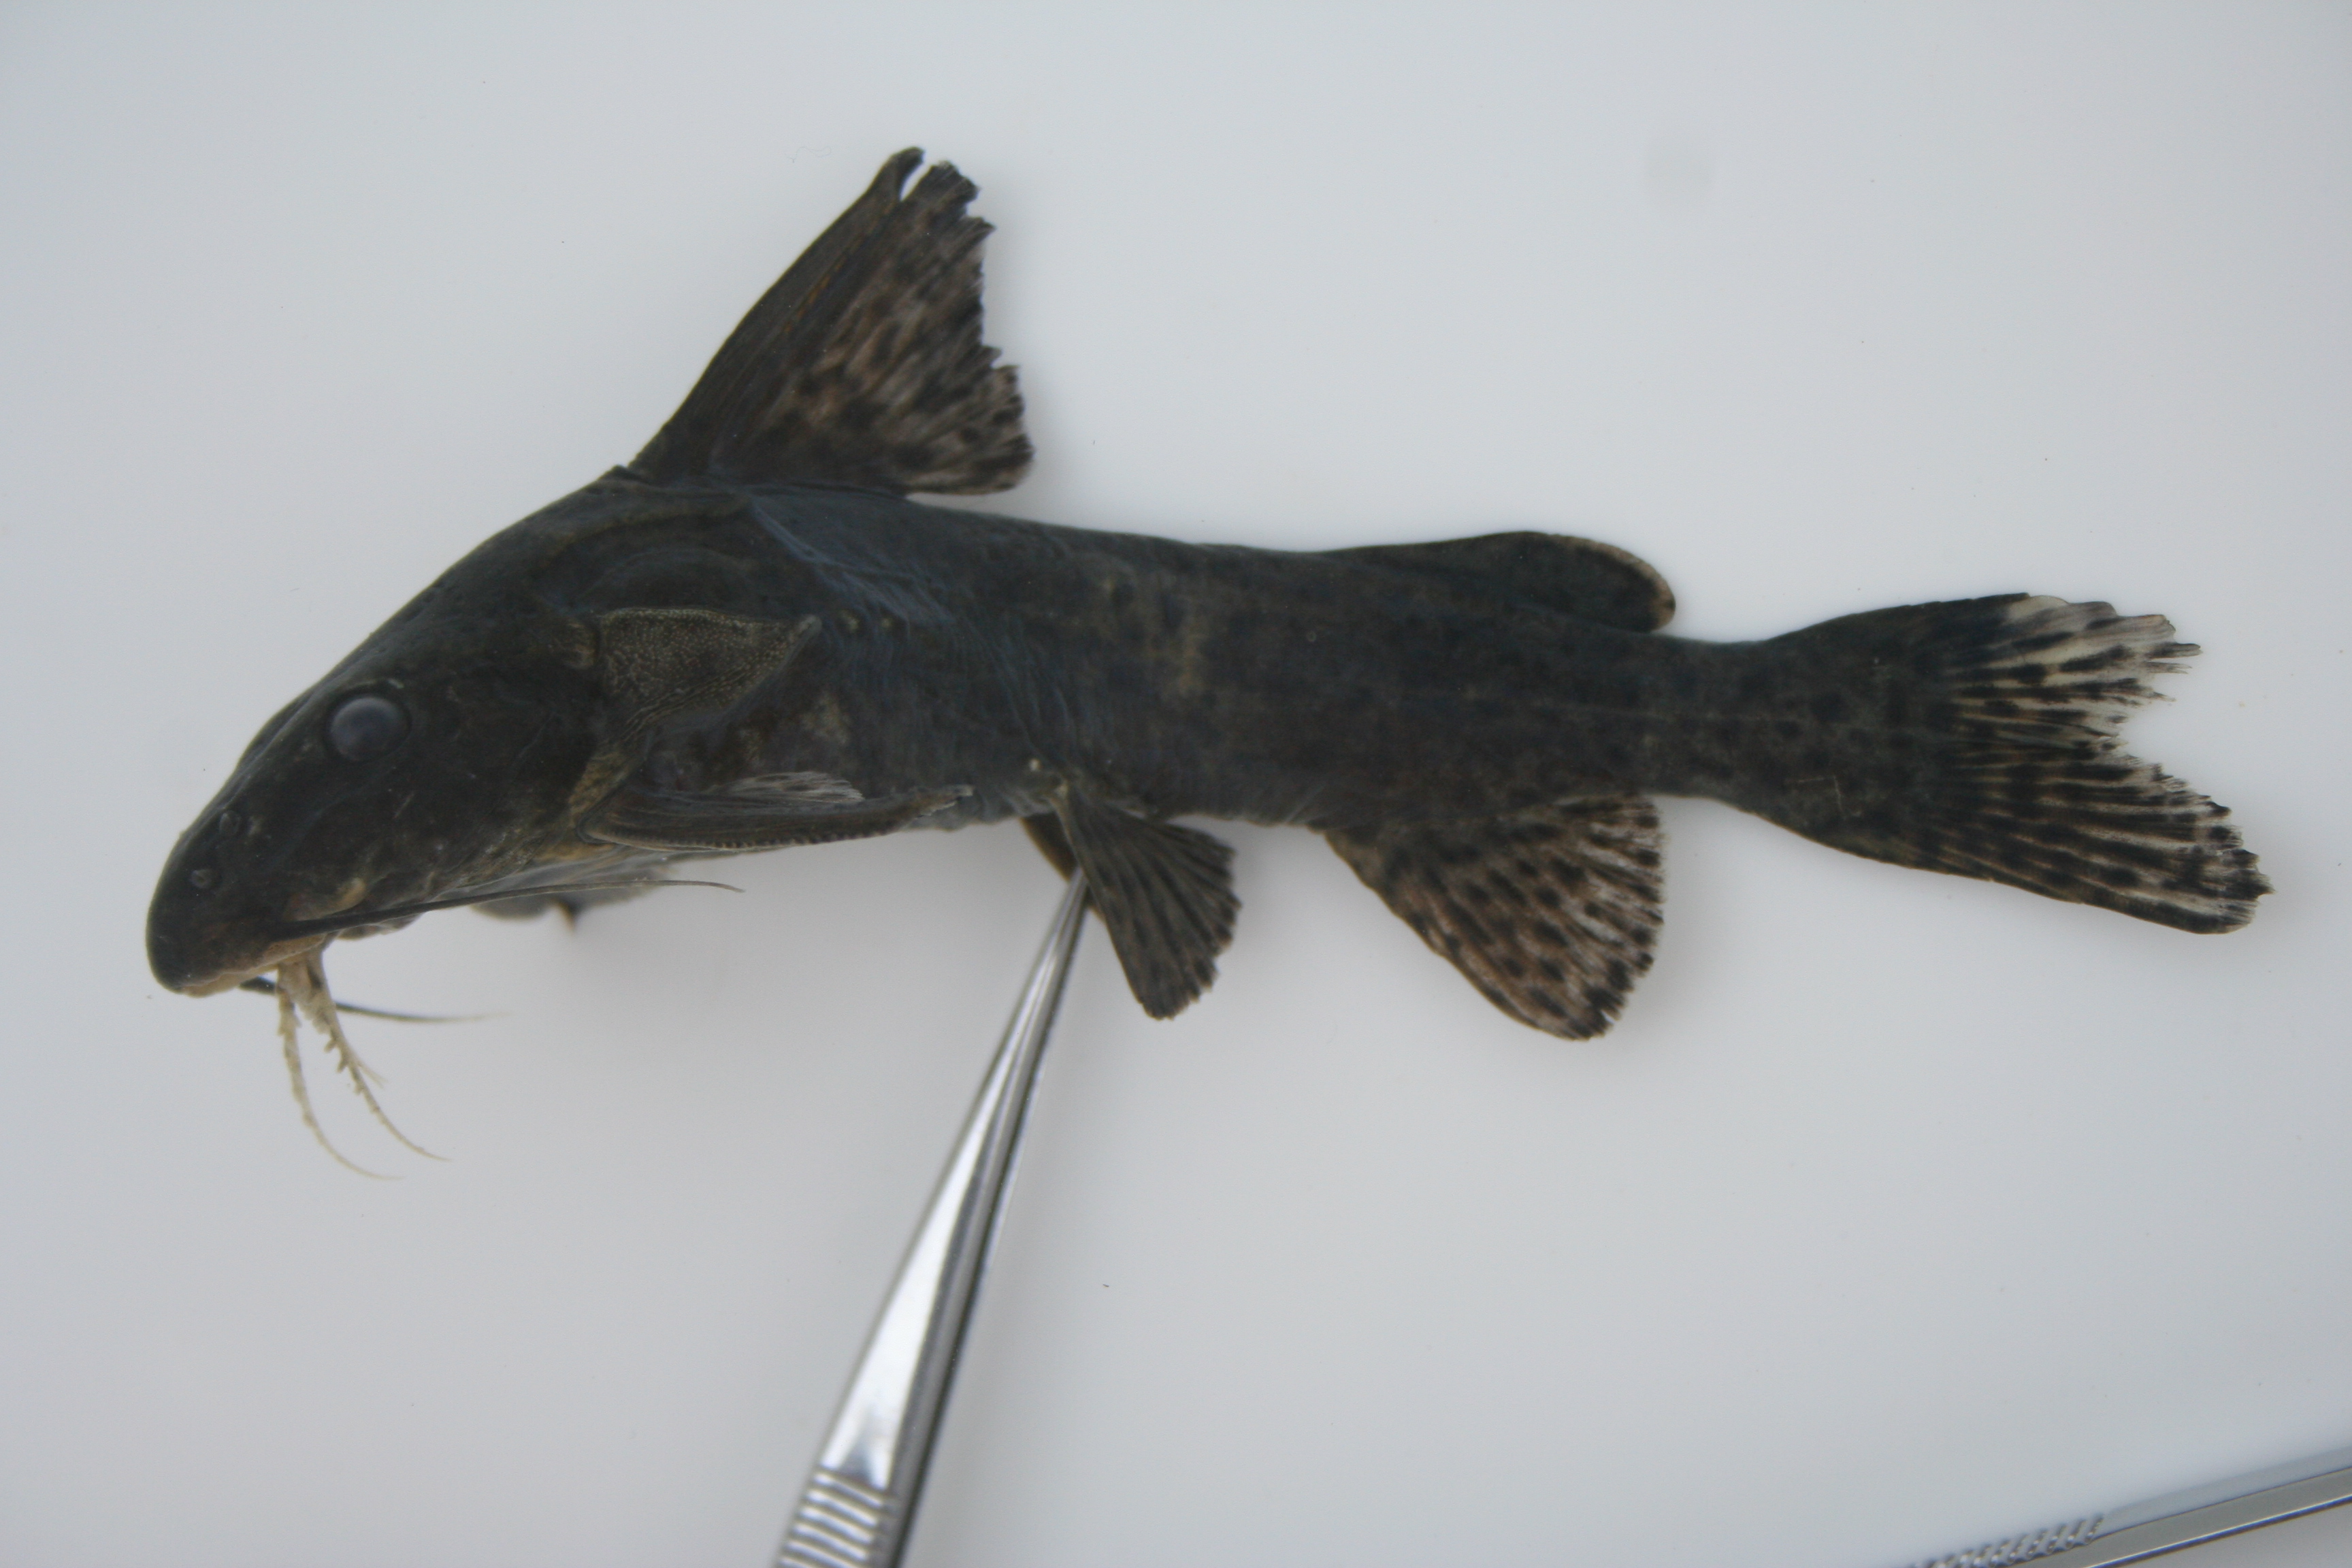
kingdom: Animalia
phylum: Chordata
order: Siluriformes
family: Mochokidae
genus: Synodontis
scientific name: Synodontis
